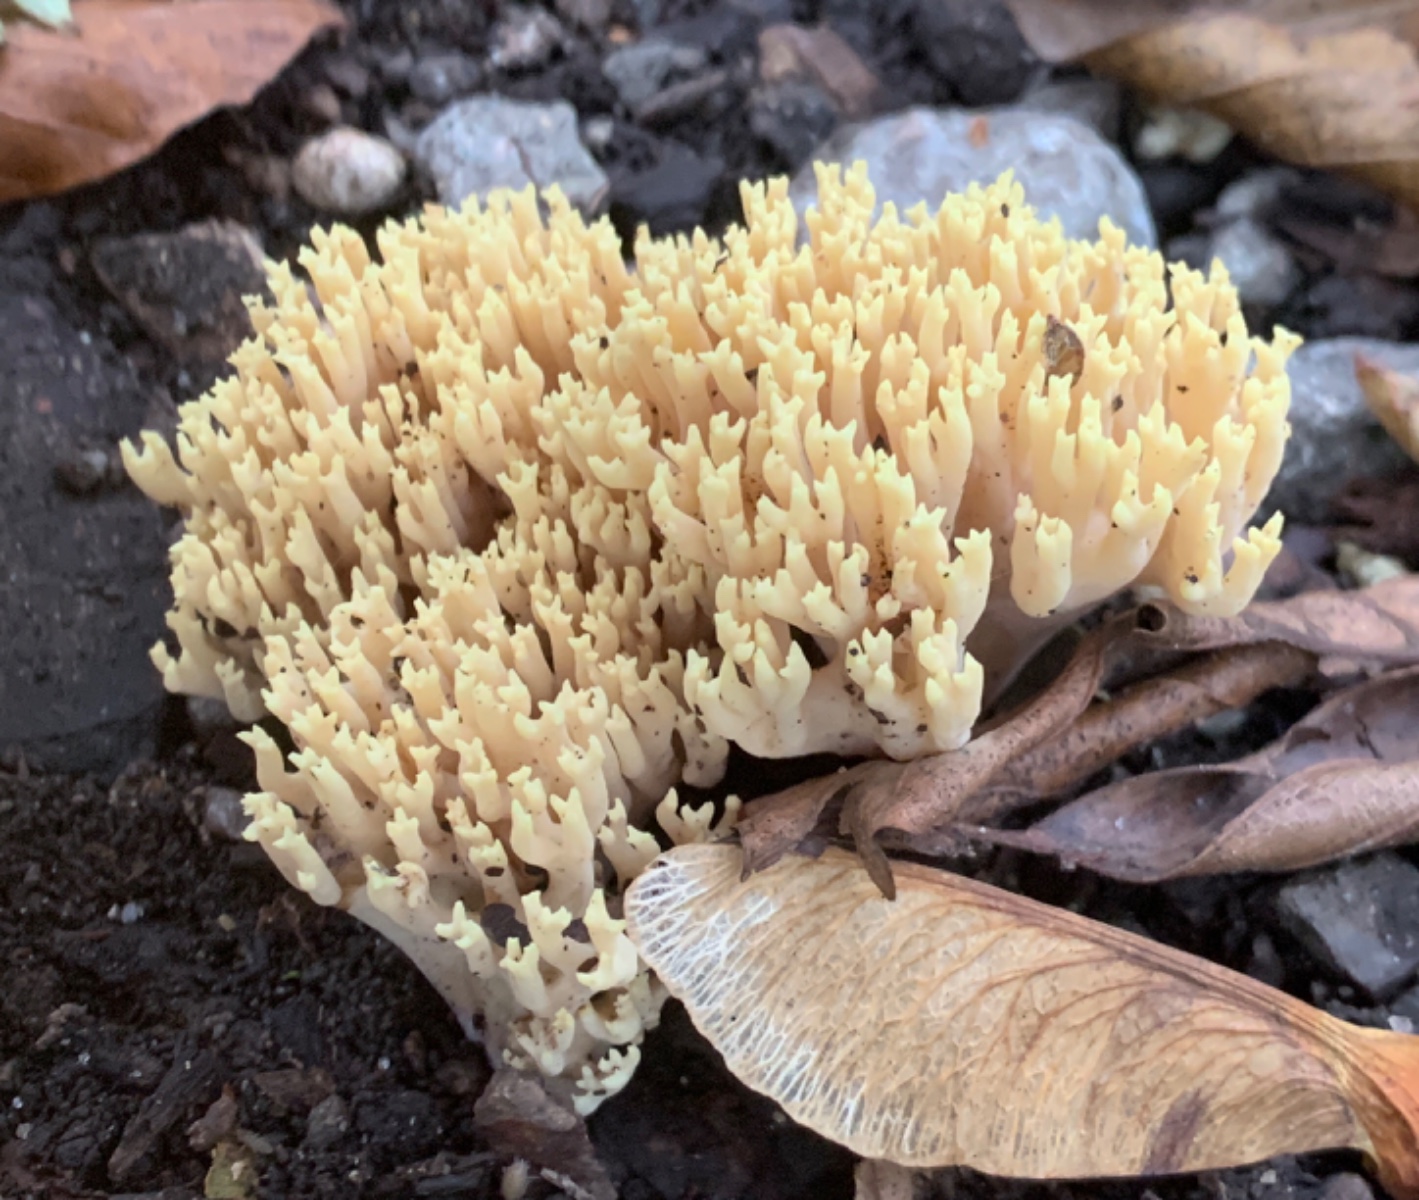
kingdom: Fungi
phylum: Basidiomycota
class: Agaricomycetes
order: Gomphales
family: Gomphaceae
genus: Ramaria
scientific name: Ramaria stricta
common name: rank koralsvamp
